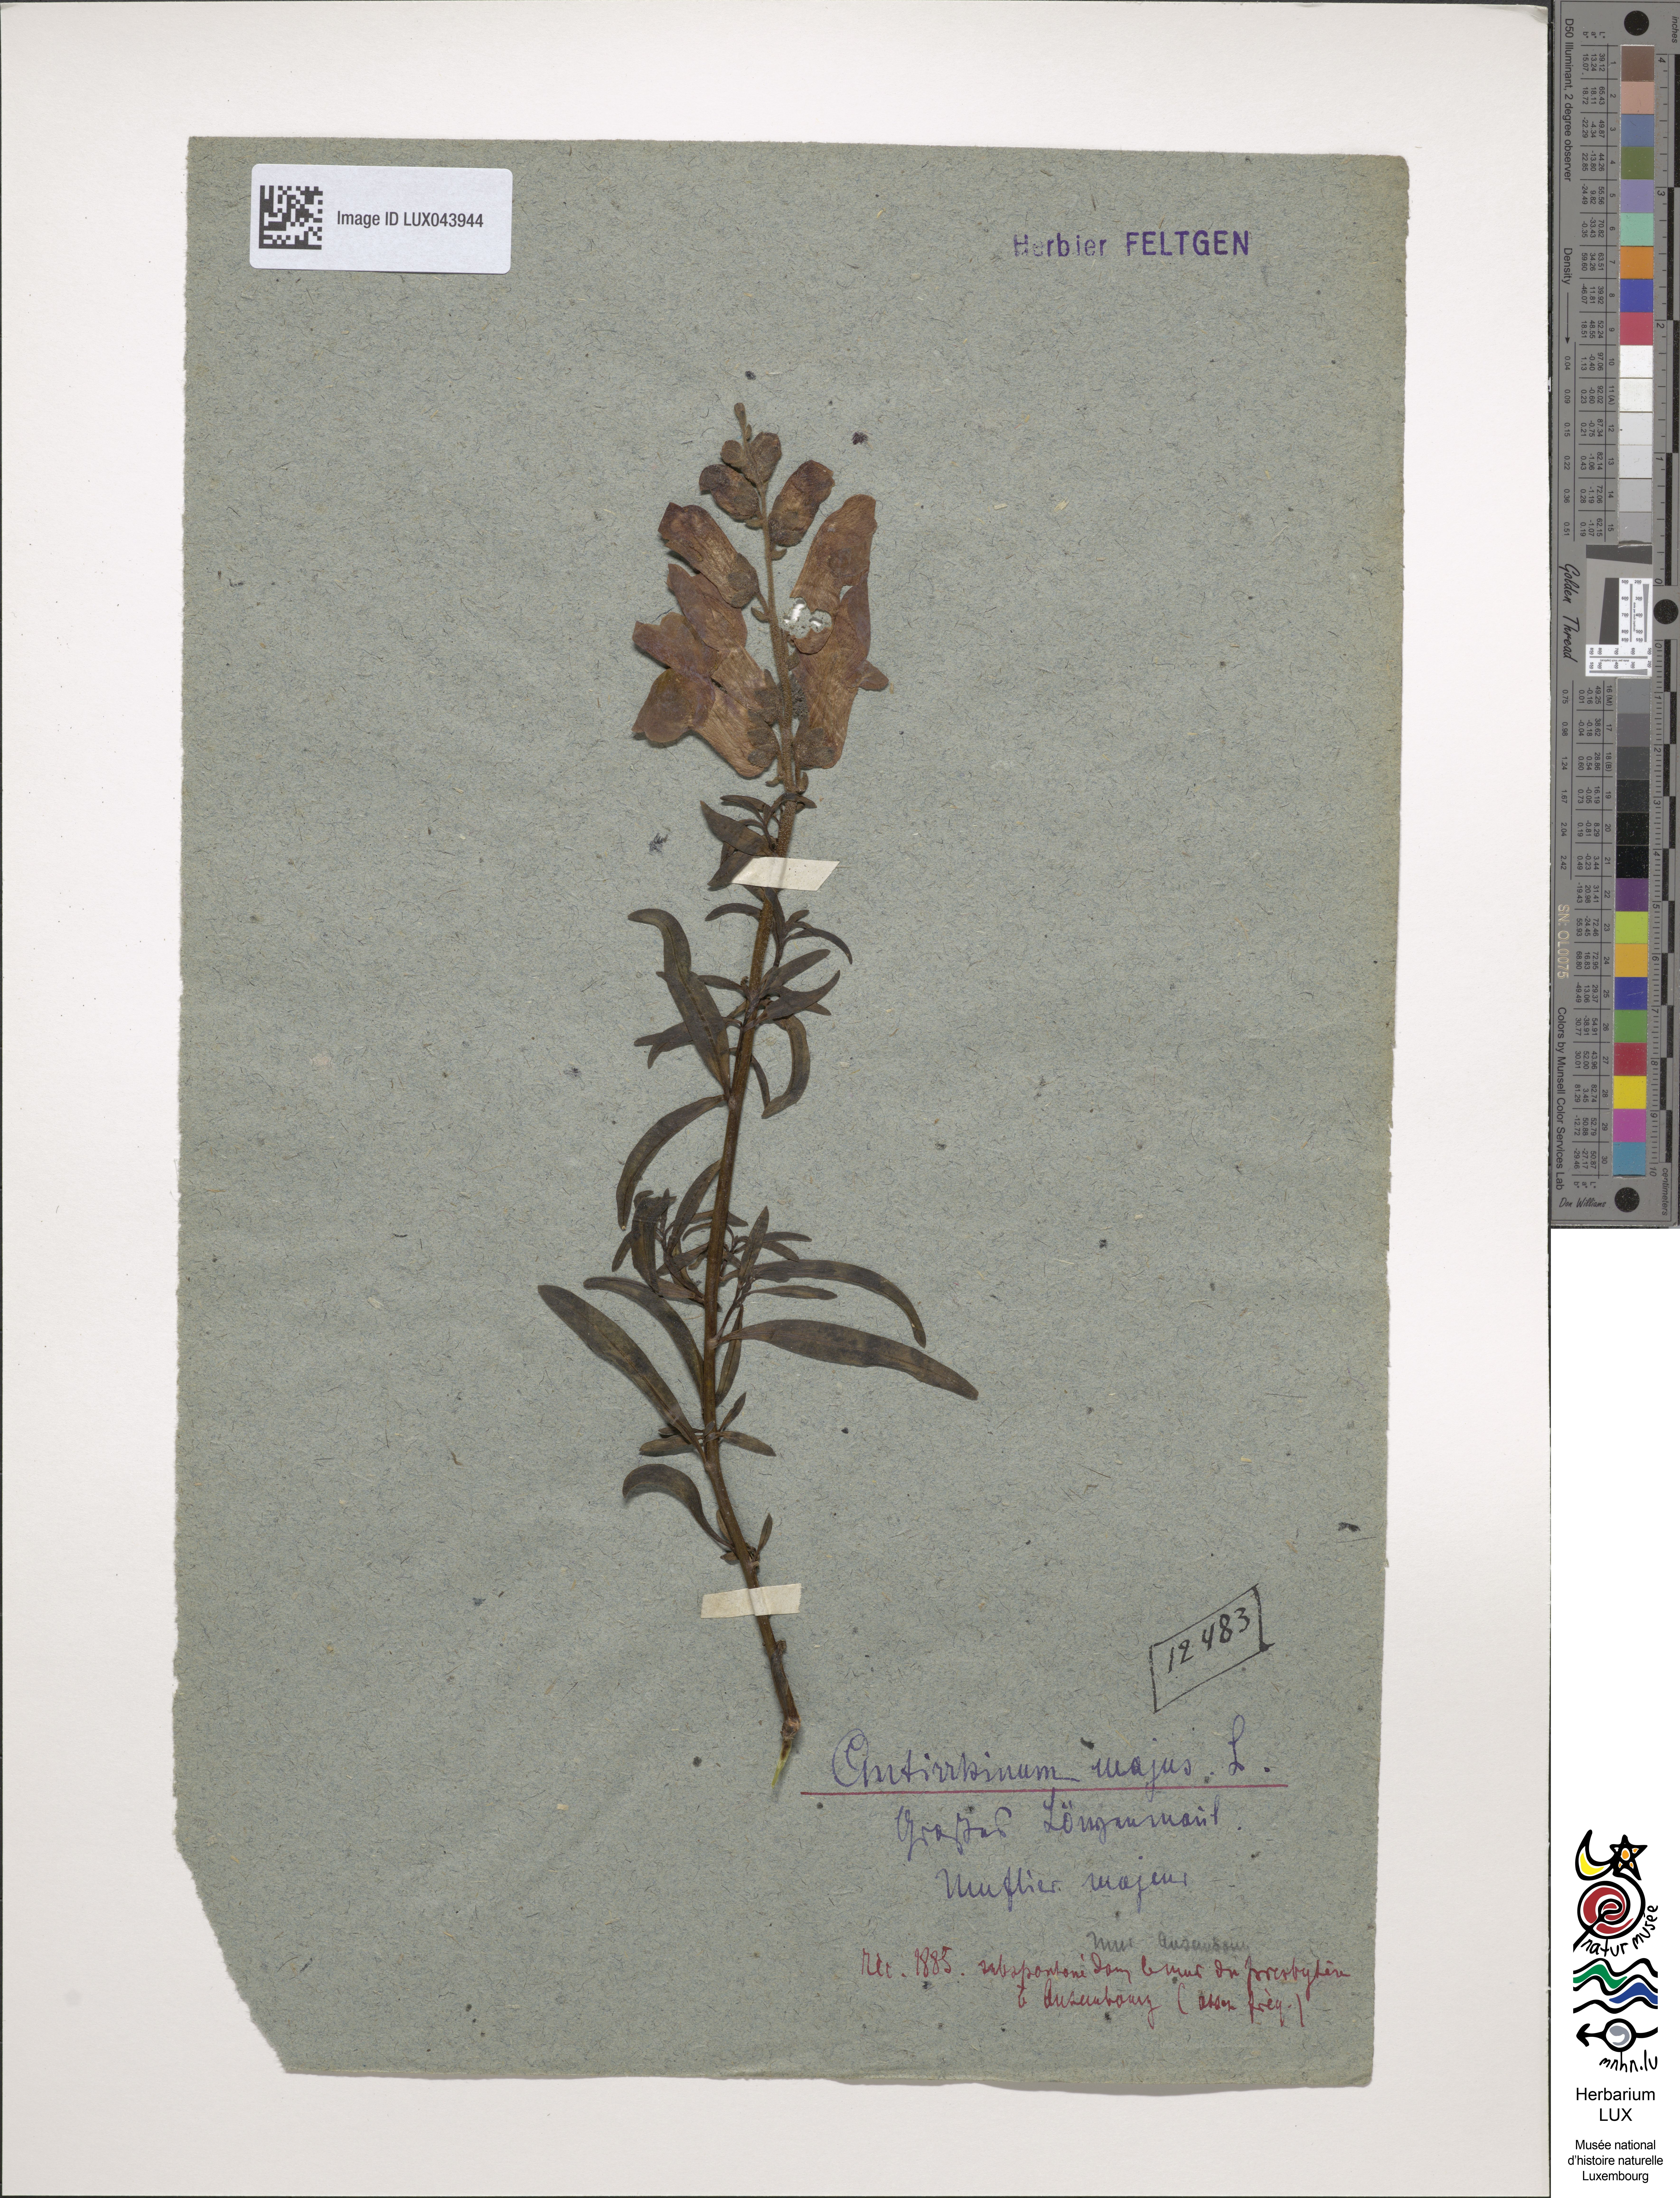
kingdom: Plantae
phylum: Tracheophyta
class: Magnoliopsida
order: Lamiales
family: Plantaginaceae
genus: Antirrhinum
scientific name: Antirrhinum majus
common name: Snapdragon
